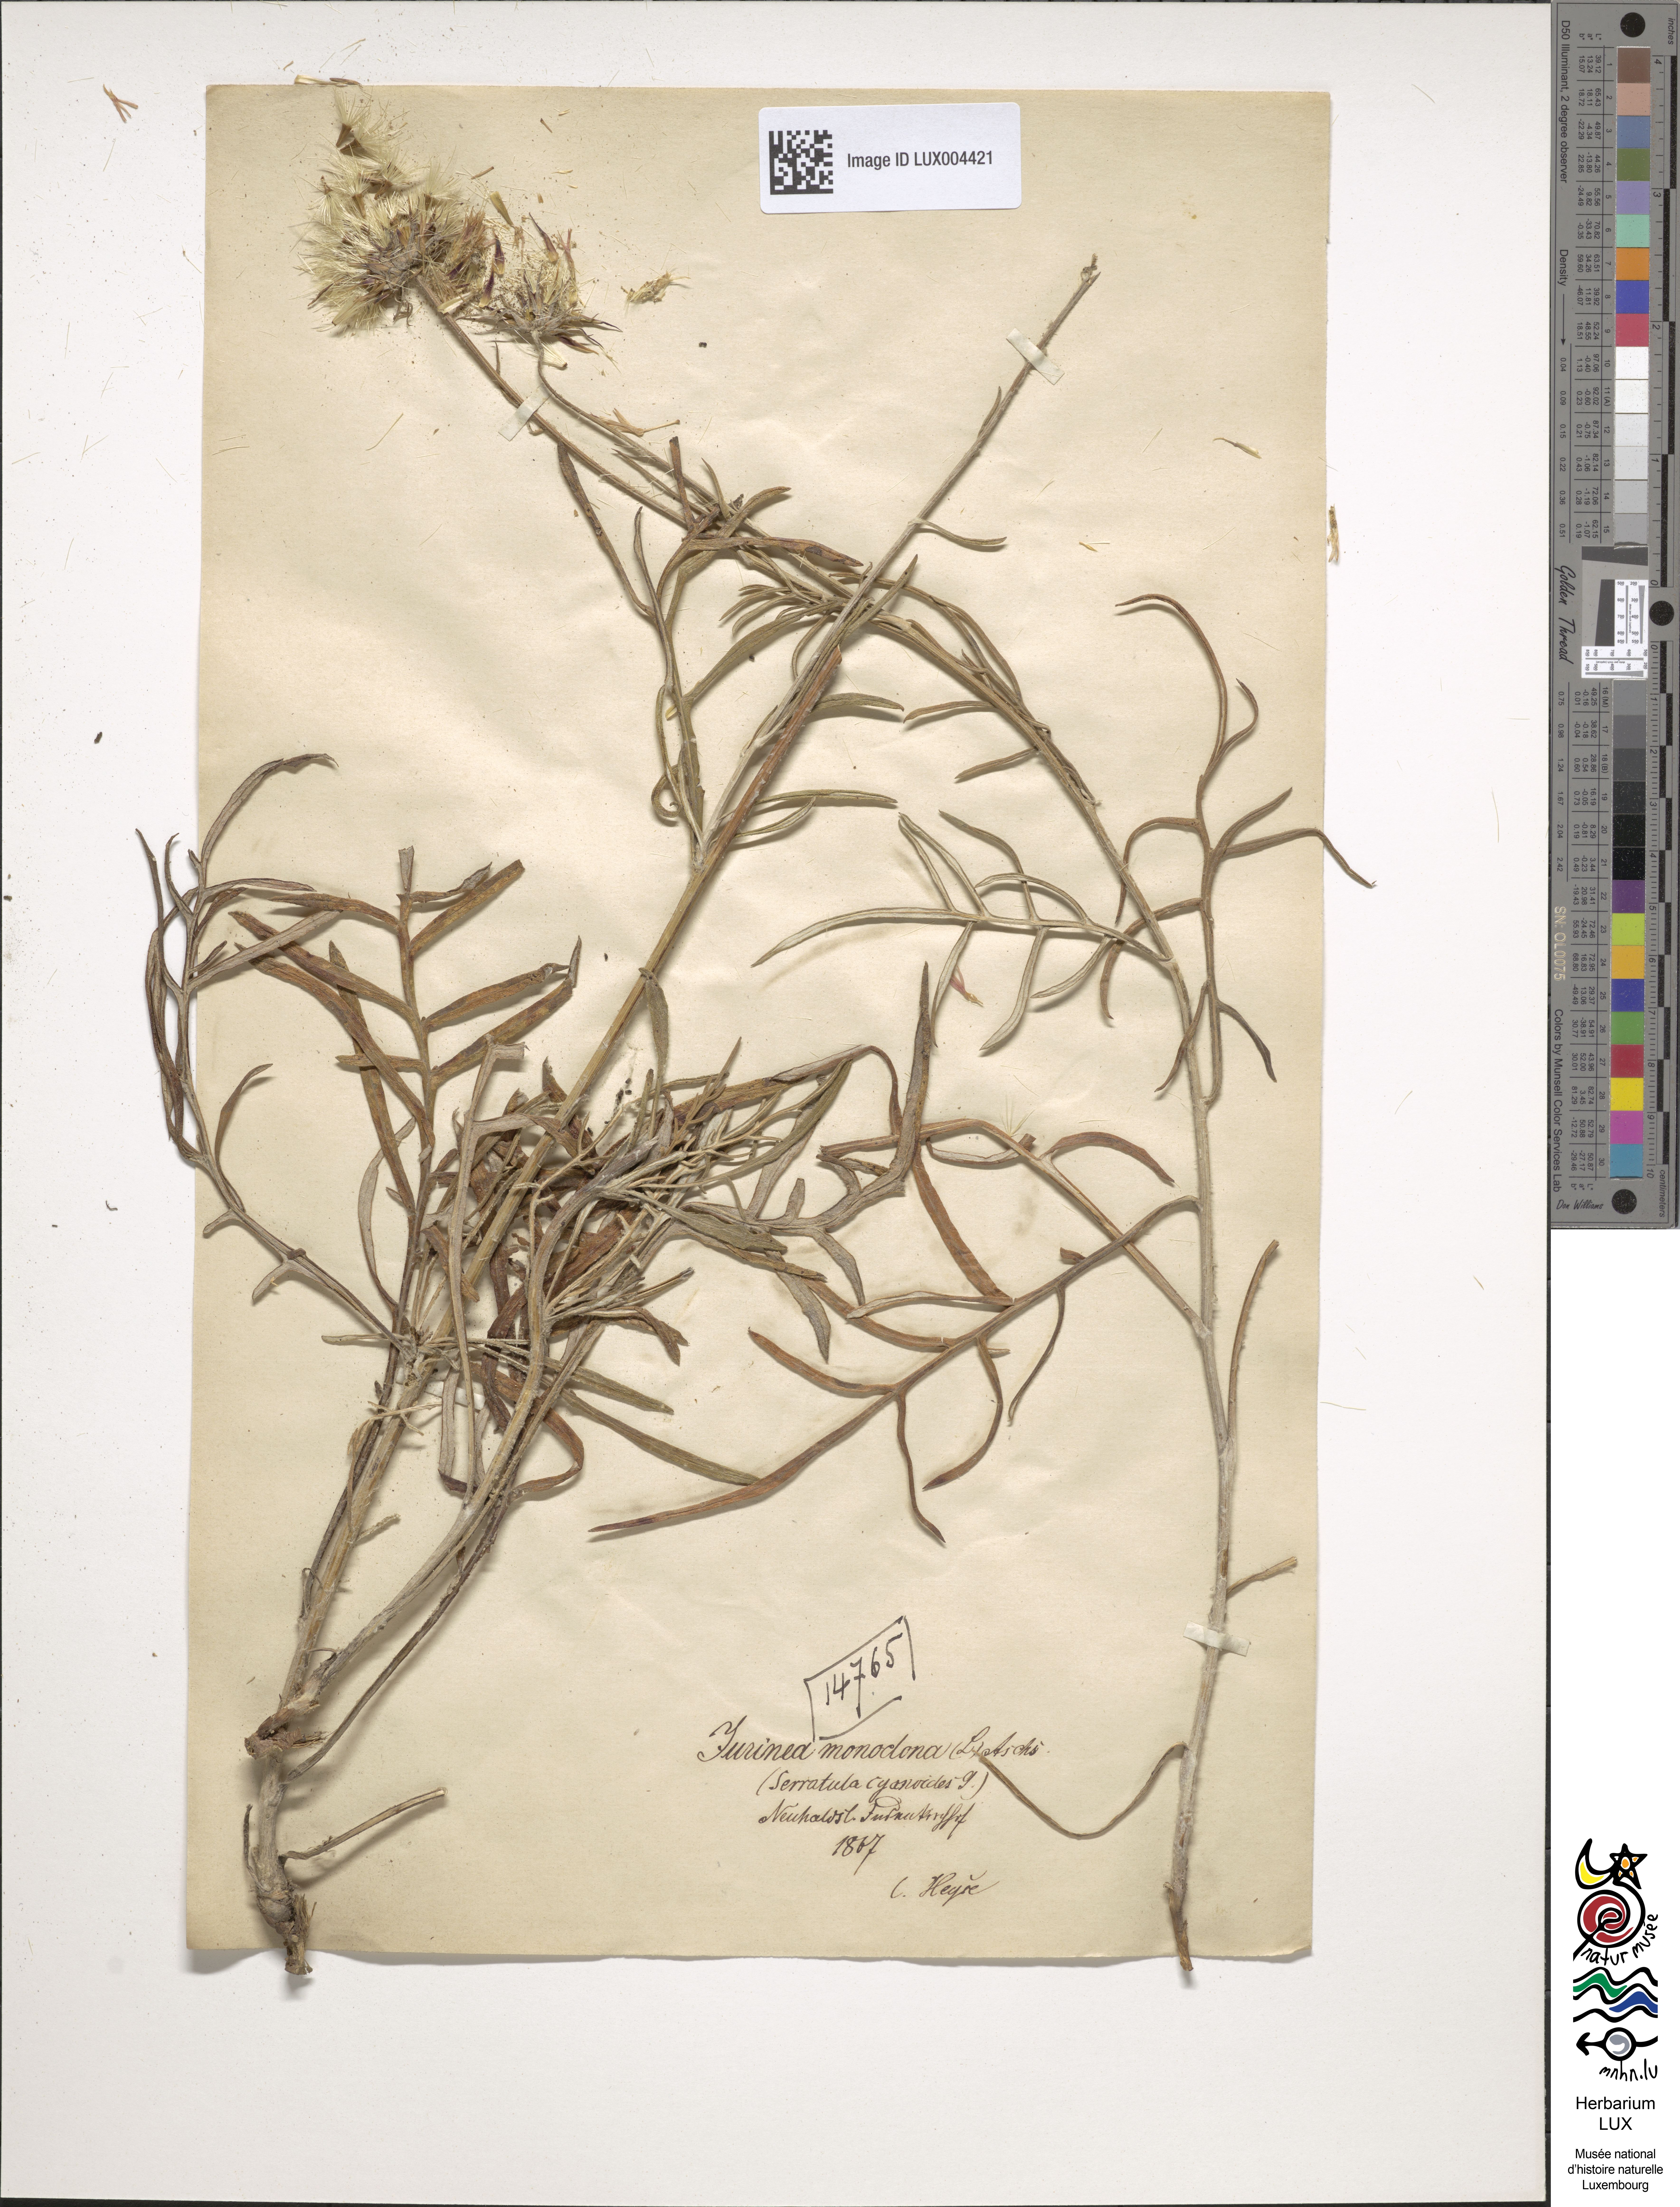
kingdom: Plantae
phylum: Tracheophyta
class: Magnoliopsida
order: Asterales
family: Asteraceae
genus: Jurinea
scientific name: Jurinea cyanoides
